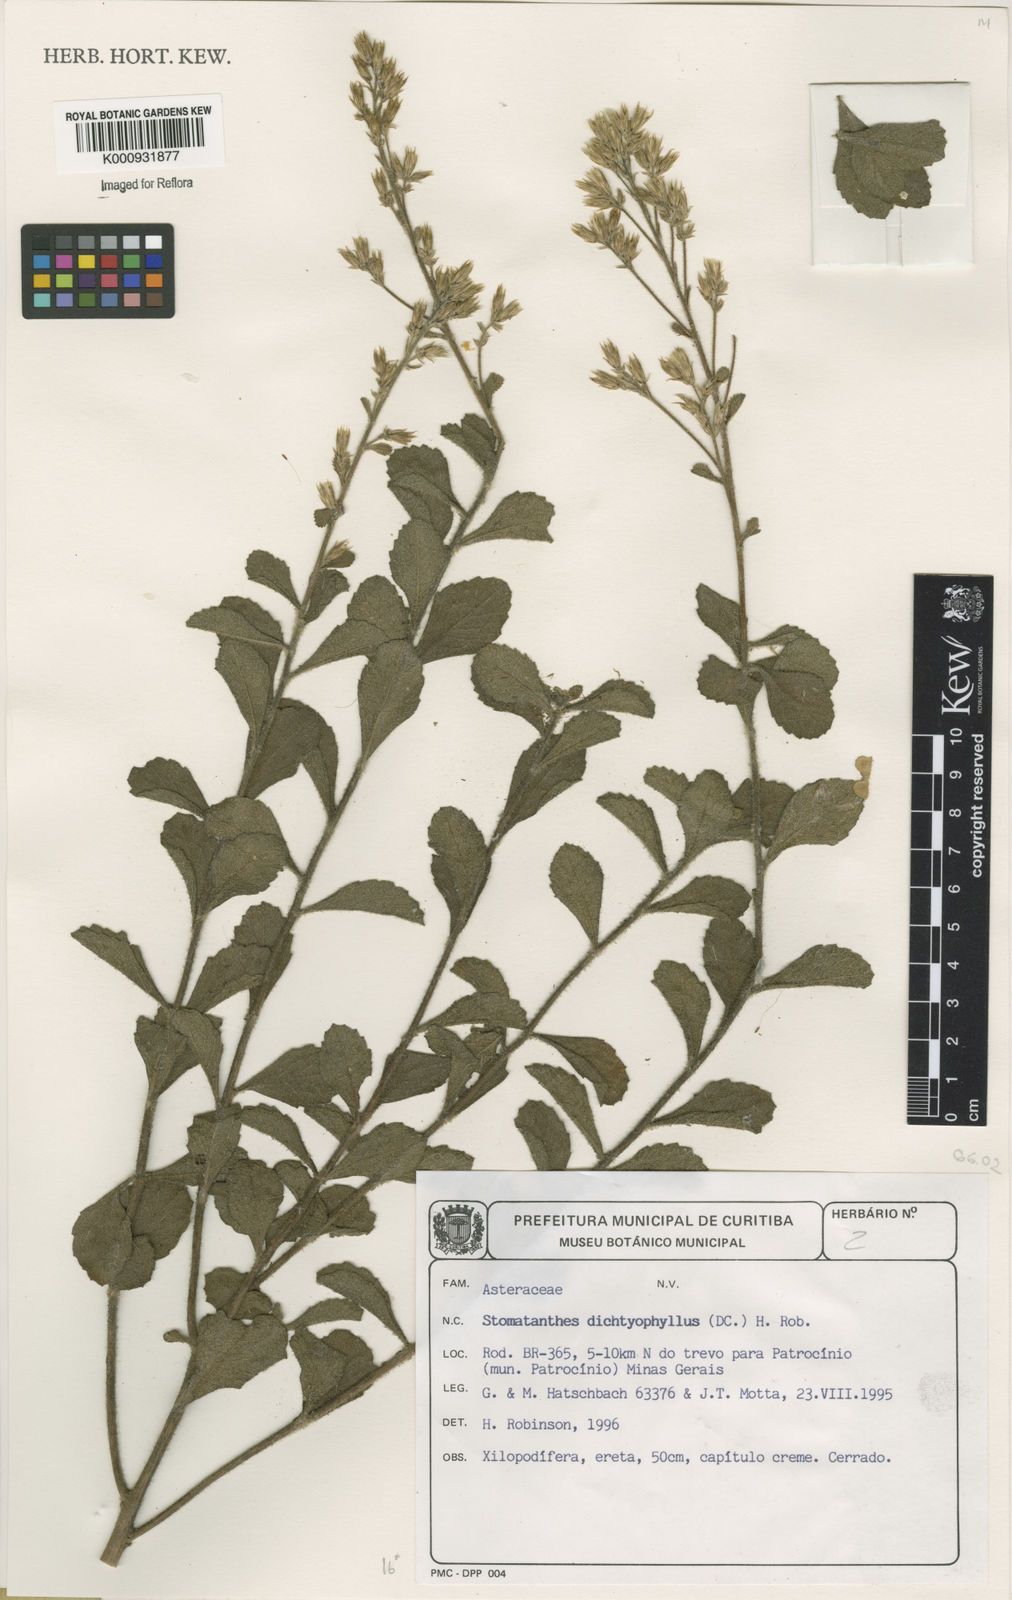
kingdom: Plantae
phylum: Tracheophyta
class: Magnoliopsida
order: Asterales
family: Asteraceae
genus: Stomatanthes
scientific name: Stomatanthes dictyophyllus
